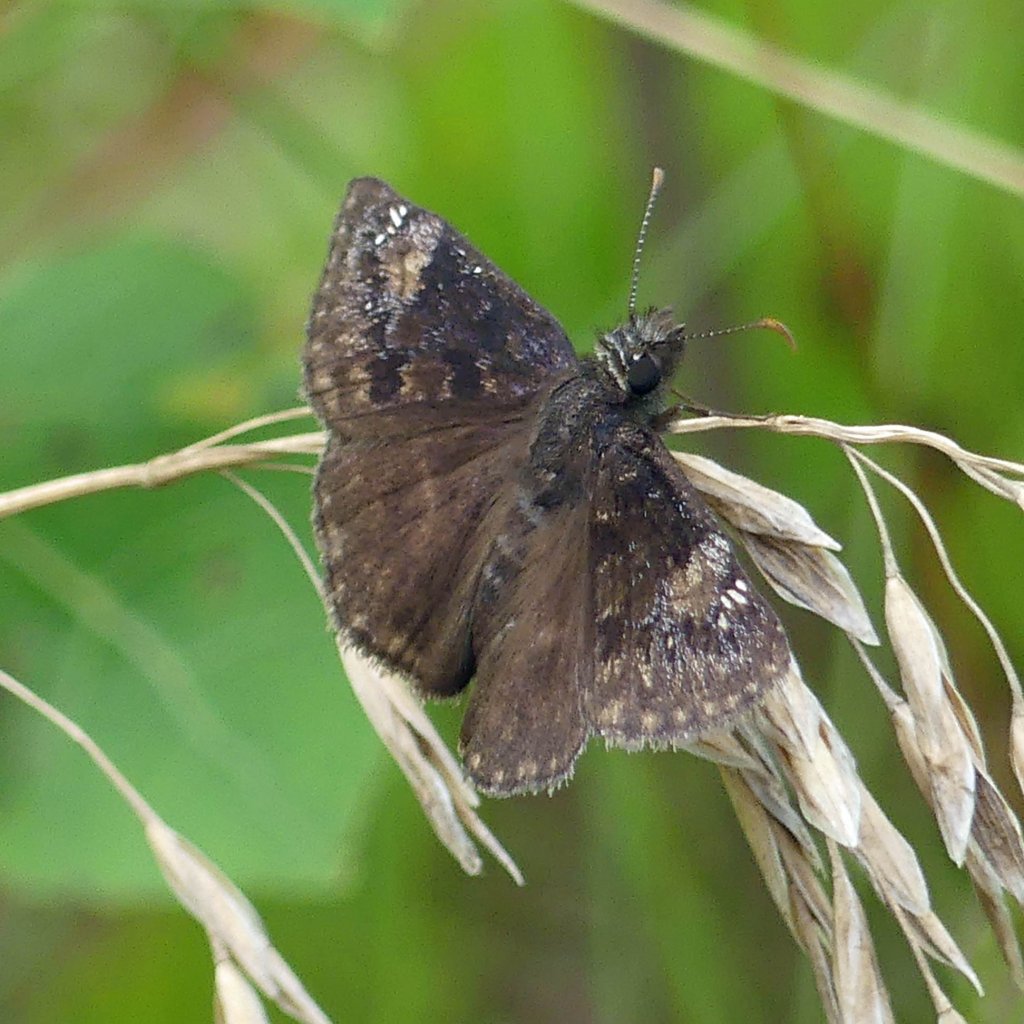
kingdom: Animalia
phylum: Arthropoda
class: Insecta
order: Lepidoptera
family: Hesperiidae
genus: Gesta
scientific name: Gesta
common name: Wild Indigo Duskywing
